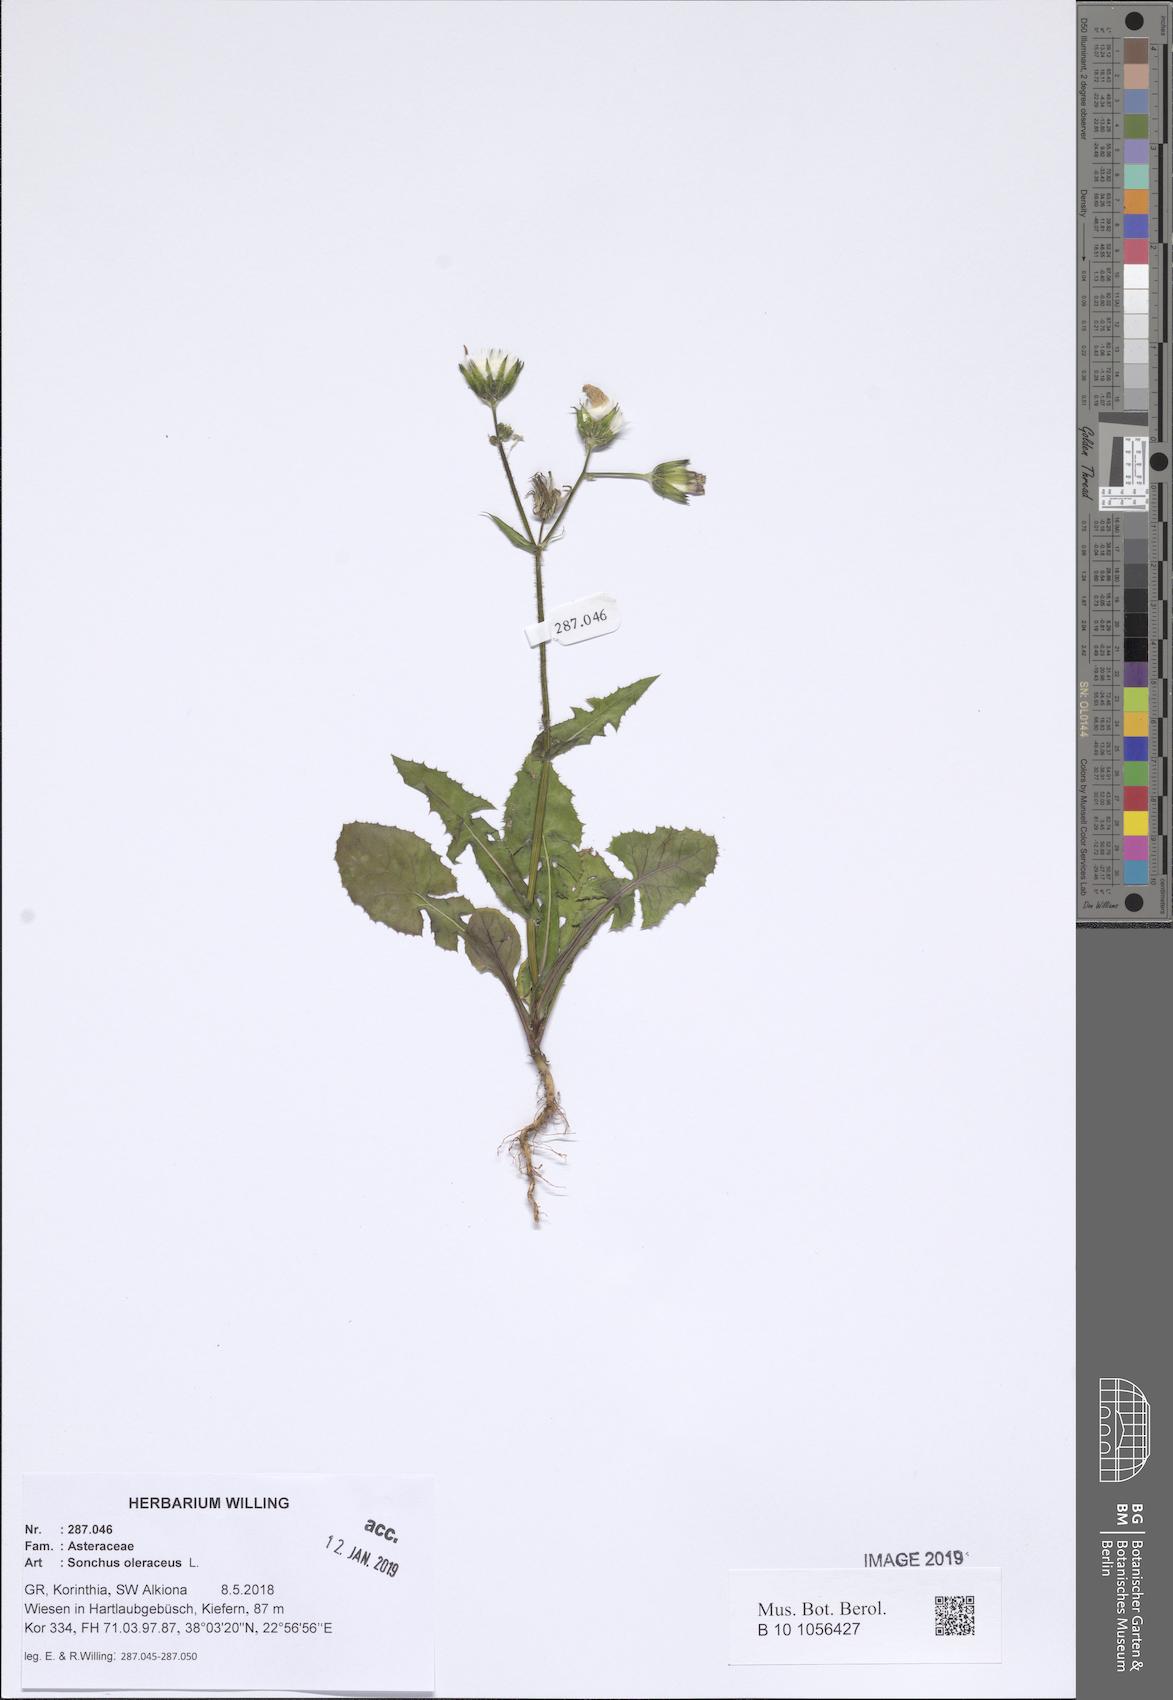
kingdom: Plantae
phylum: Tracheophyta
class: Magnoliopsida
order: Asterales
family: Asteraceae
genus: Sonchus
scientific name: Sonchus oleraceus
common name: Common sowthistle
